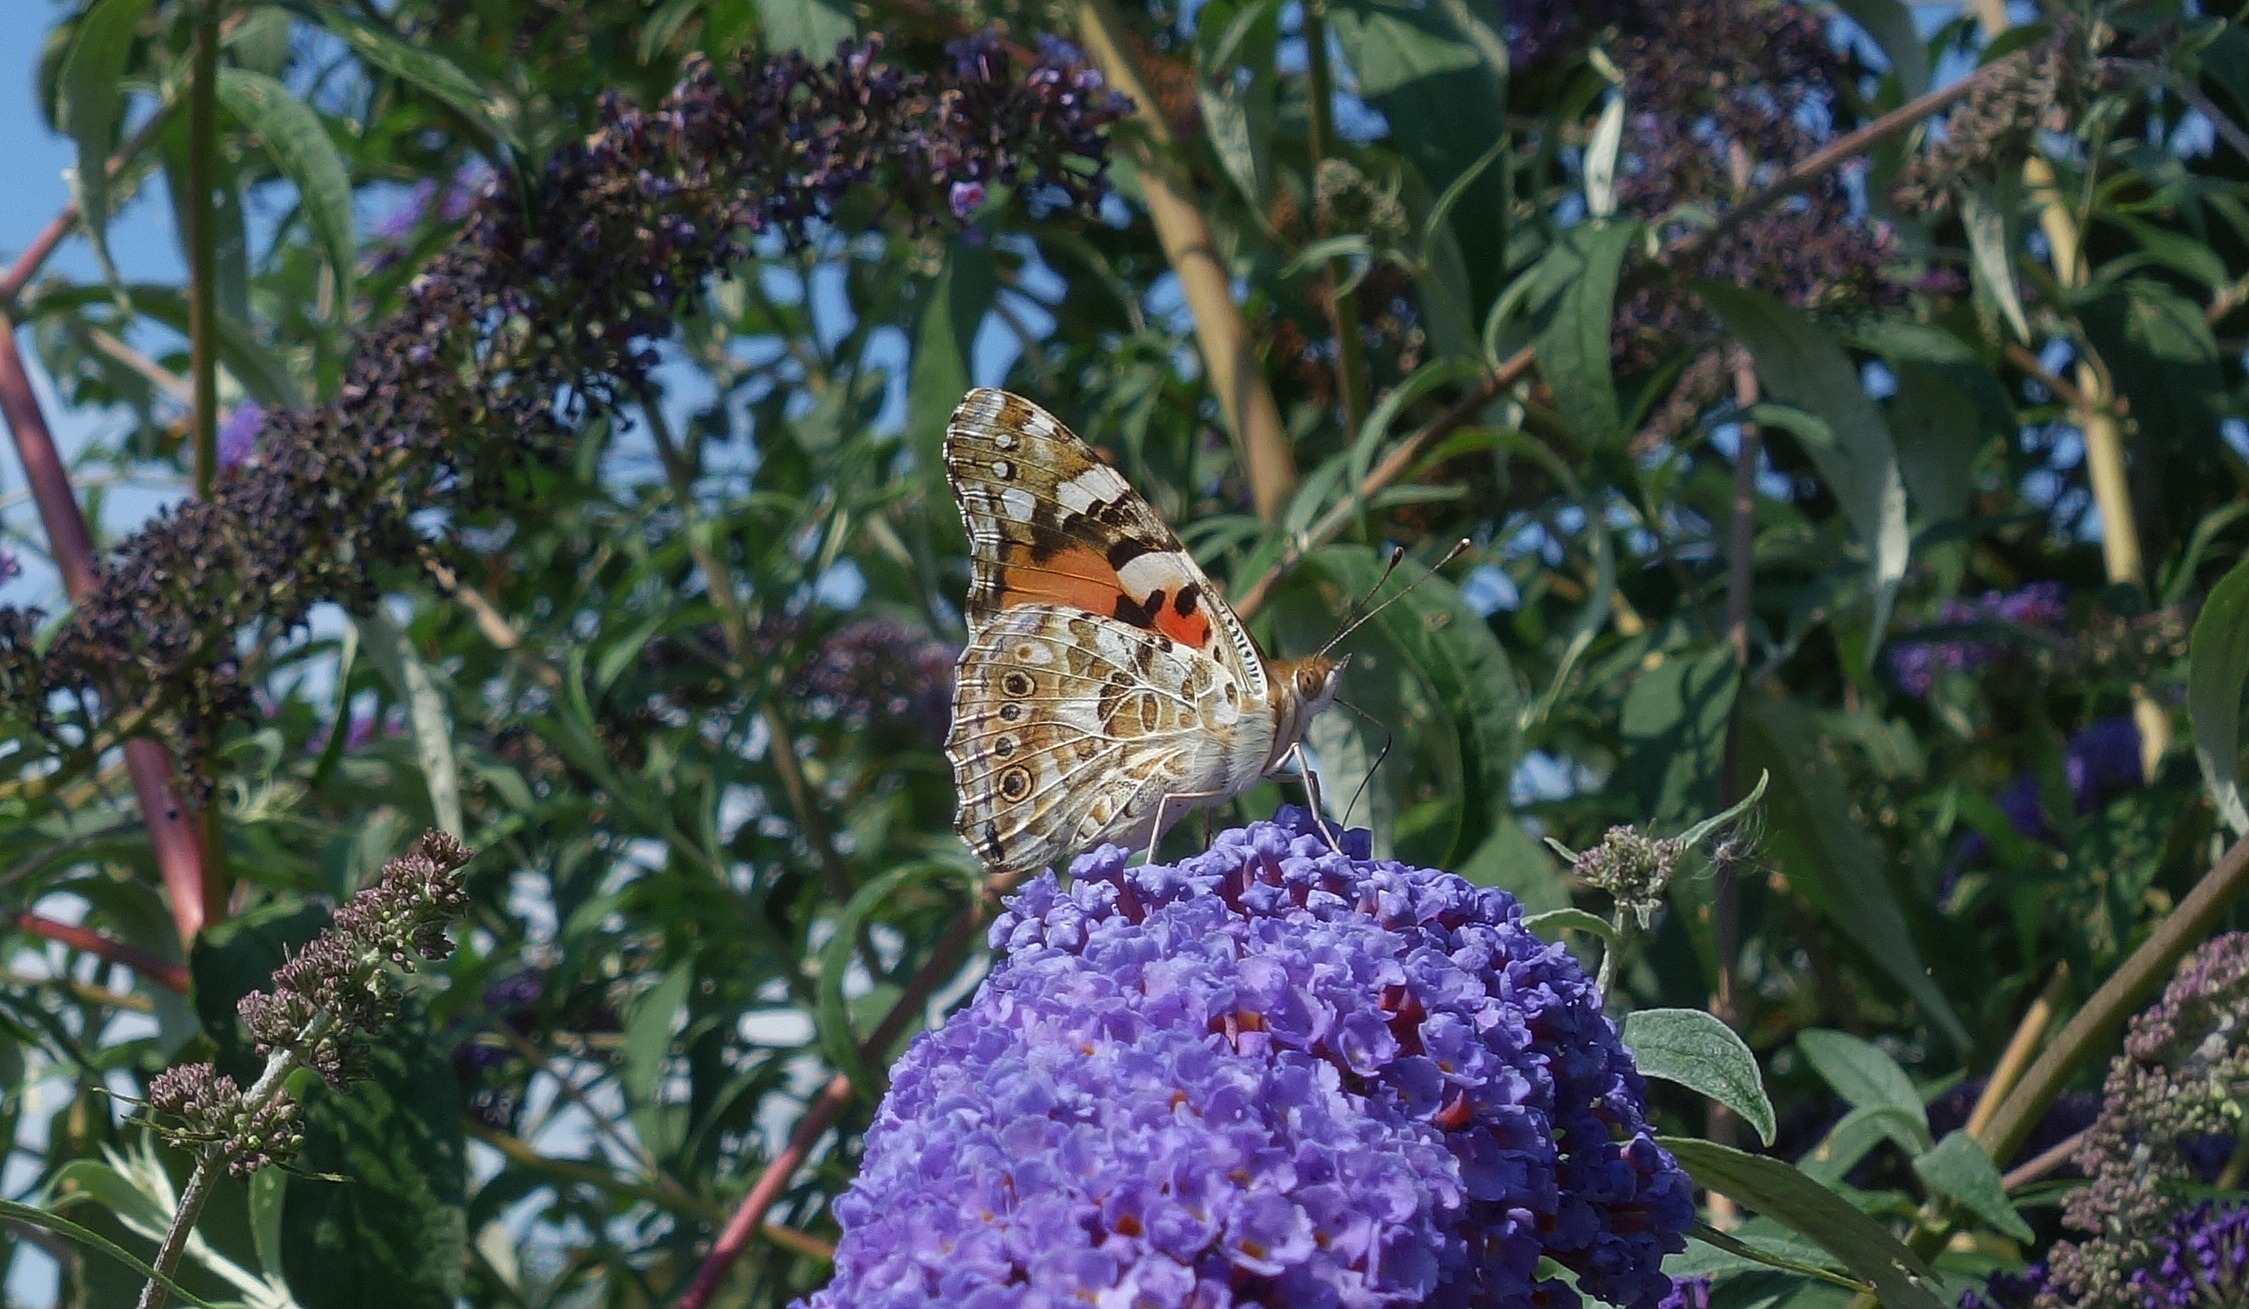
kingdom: Animalia
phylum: Arthropoda
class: Insecta
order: Lepidoptera
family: Nymphalidae
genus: Vanessa
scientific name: Vanessa cardui
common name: Tidselsommerfugl
